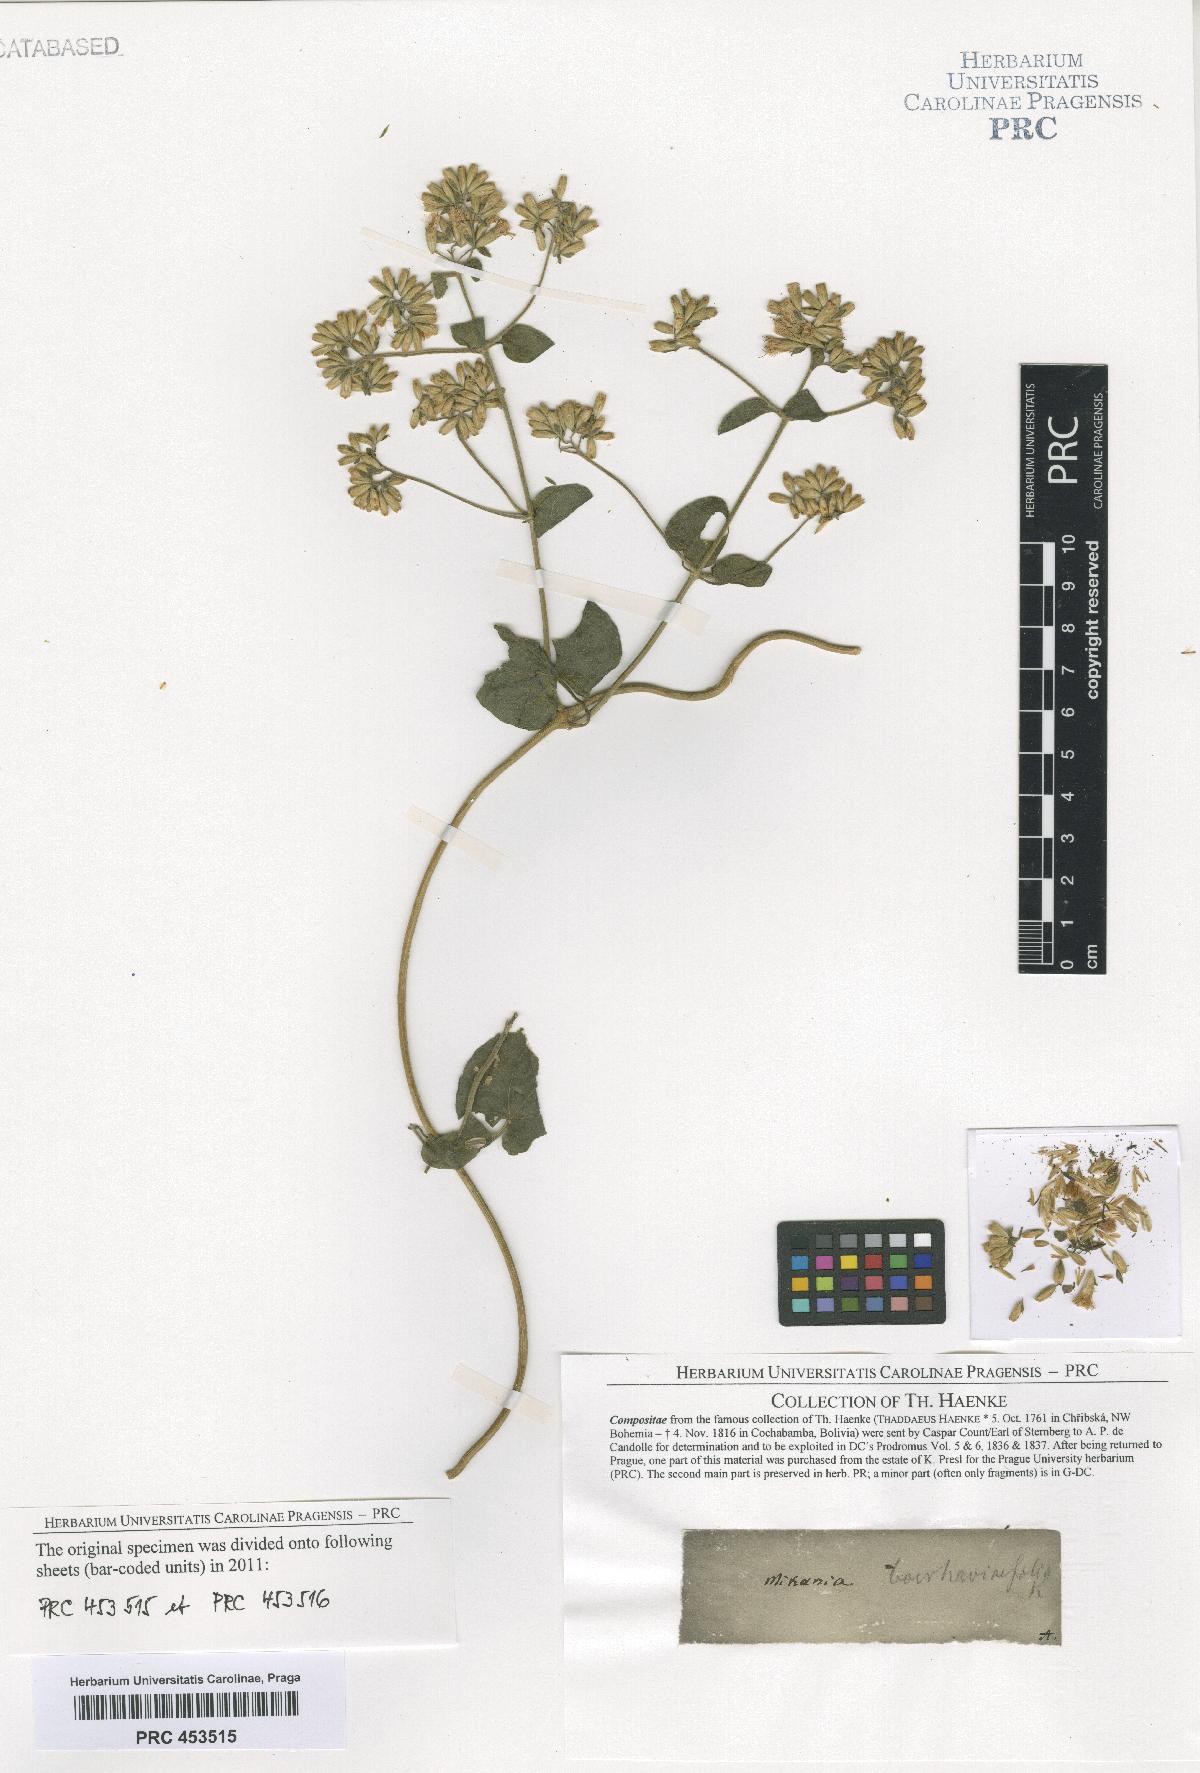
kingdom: Plantae
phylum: Tracheophyta
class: Magnoliopsida
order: Asterales
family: Asteraceae
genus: Mikania
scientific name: Mikania
